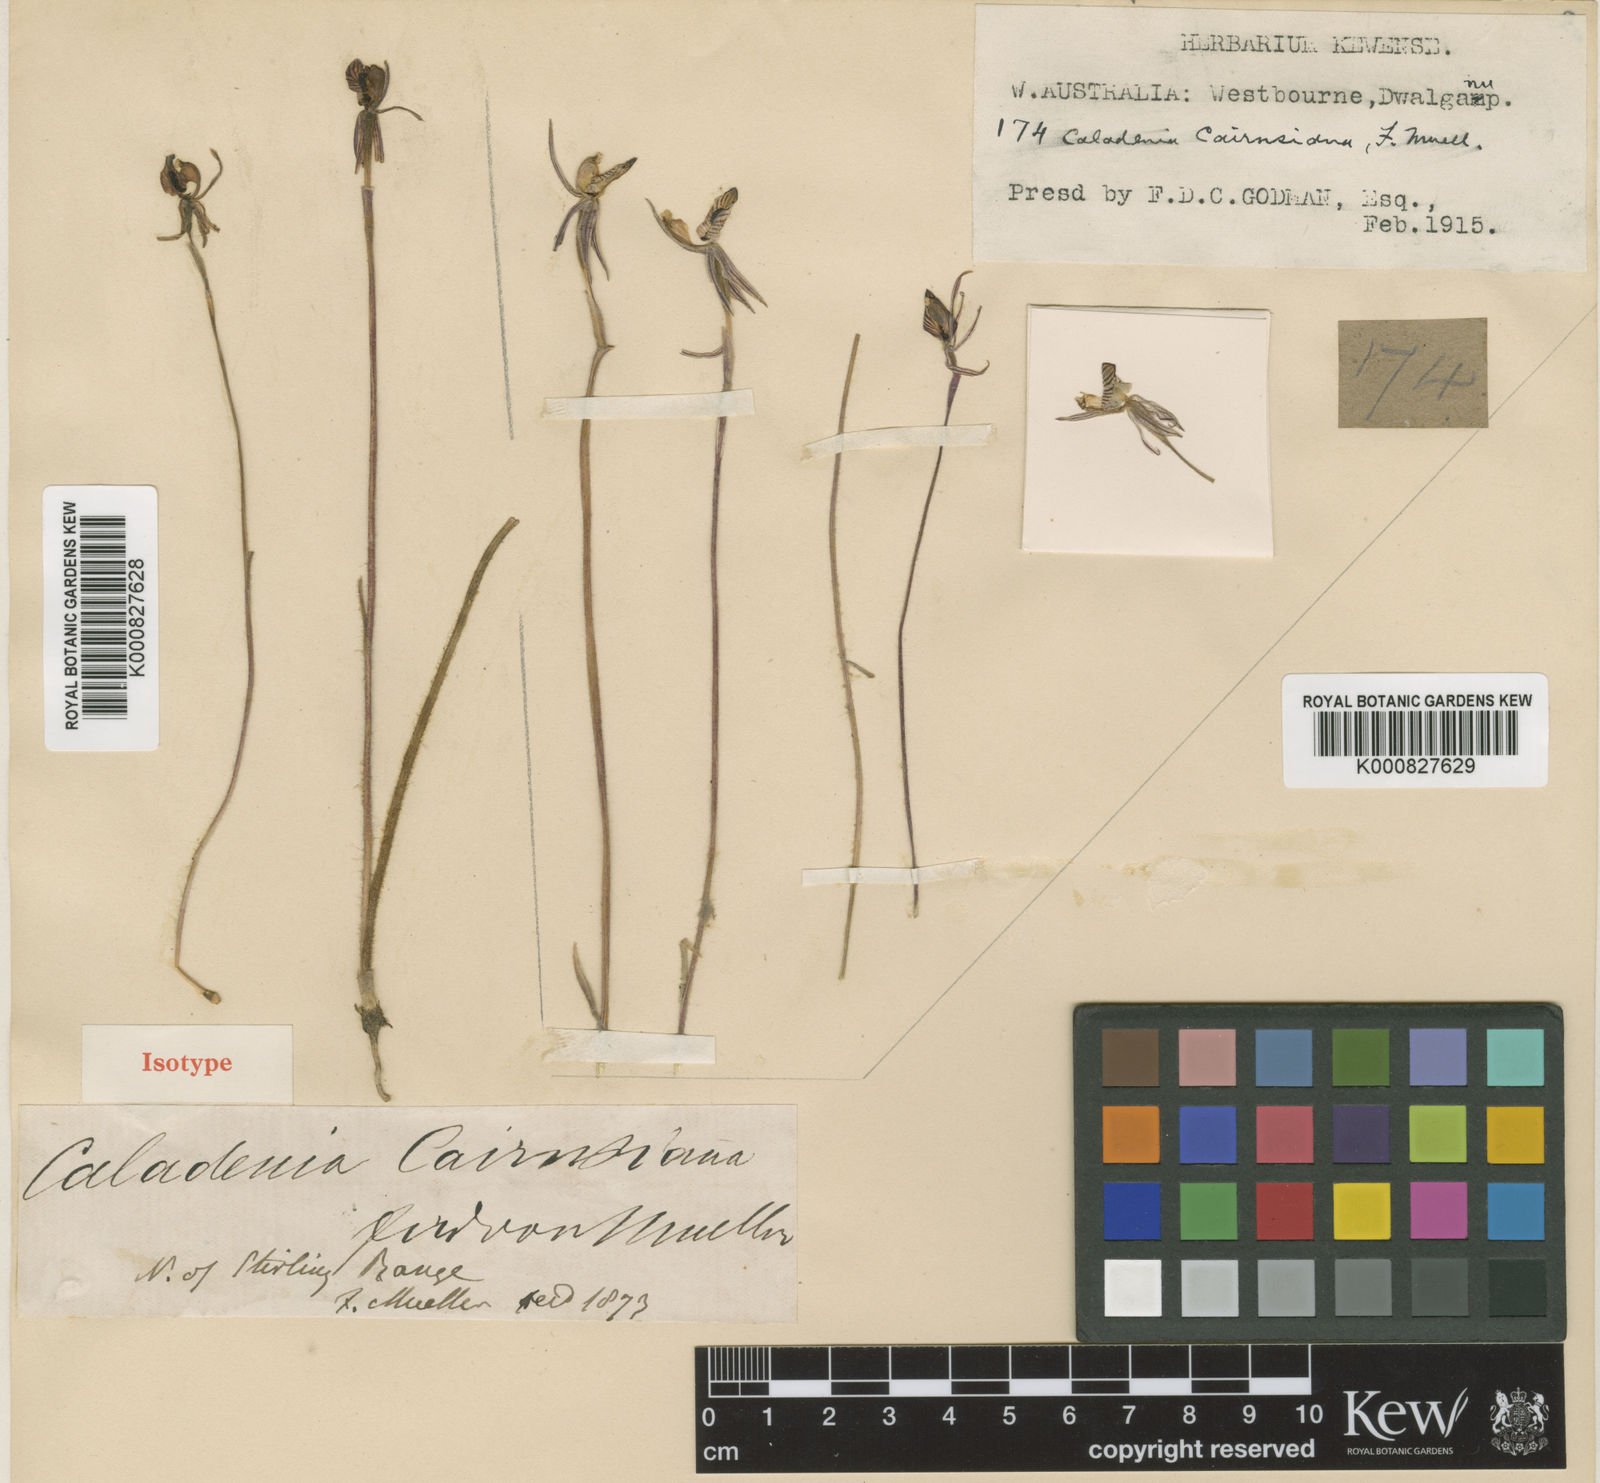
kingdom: Plantae
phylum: Tracheophyta
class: Liliopsida
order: Asparagales
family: Orchidaceae
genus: Caladenia
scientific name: Caladenia cairnsiana
